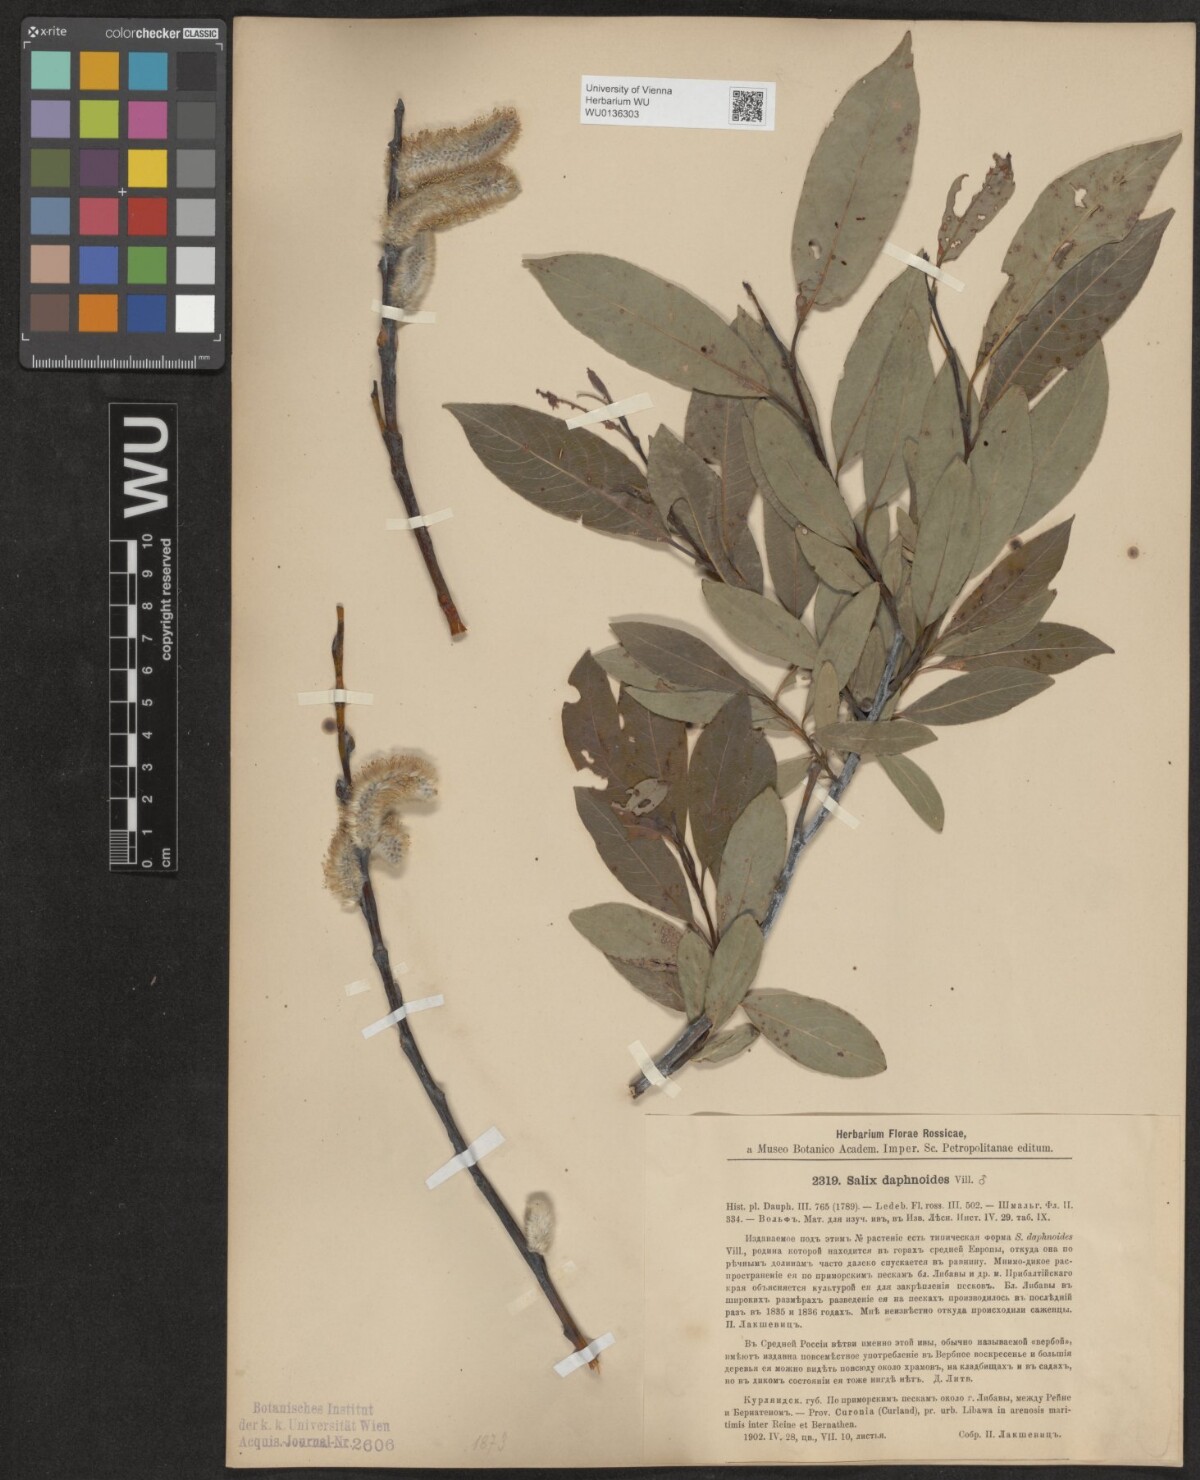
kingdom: Plantae
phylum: Tracheophyta
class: Magnoliopsida
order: Malpighiales
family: Salicaceae
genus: Salix
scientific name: Salix daphnoides
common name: European violet-willow
